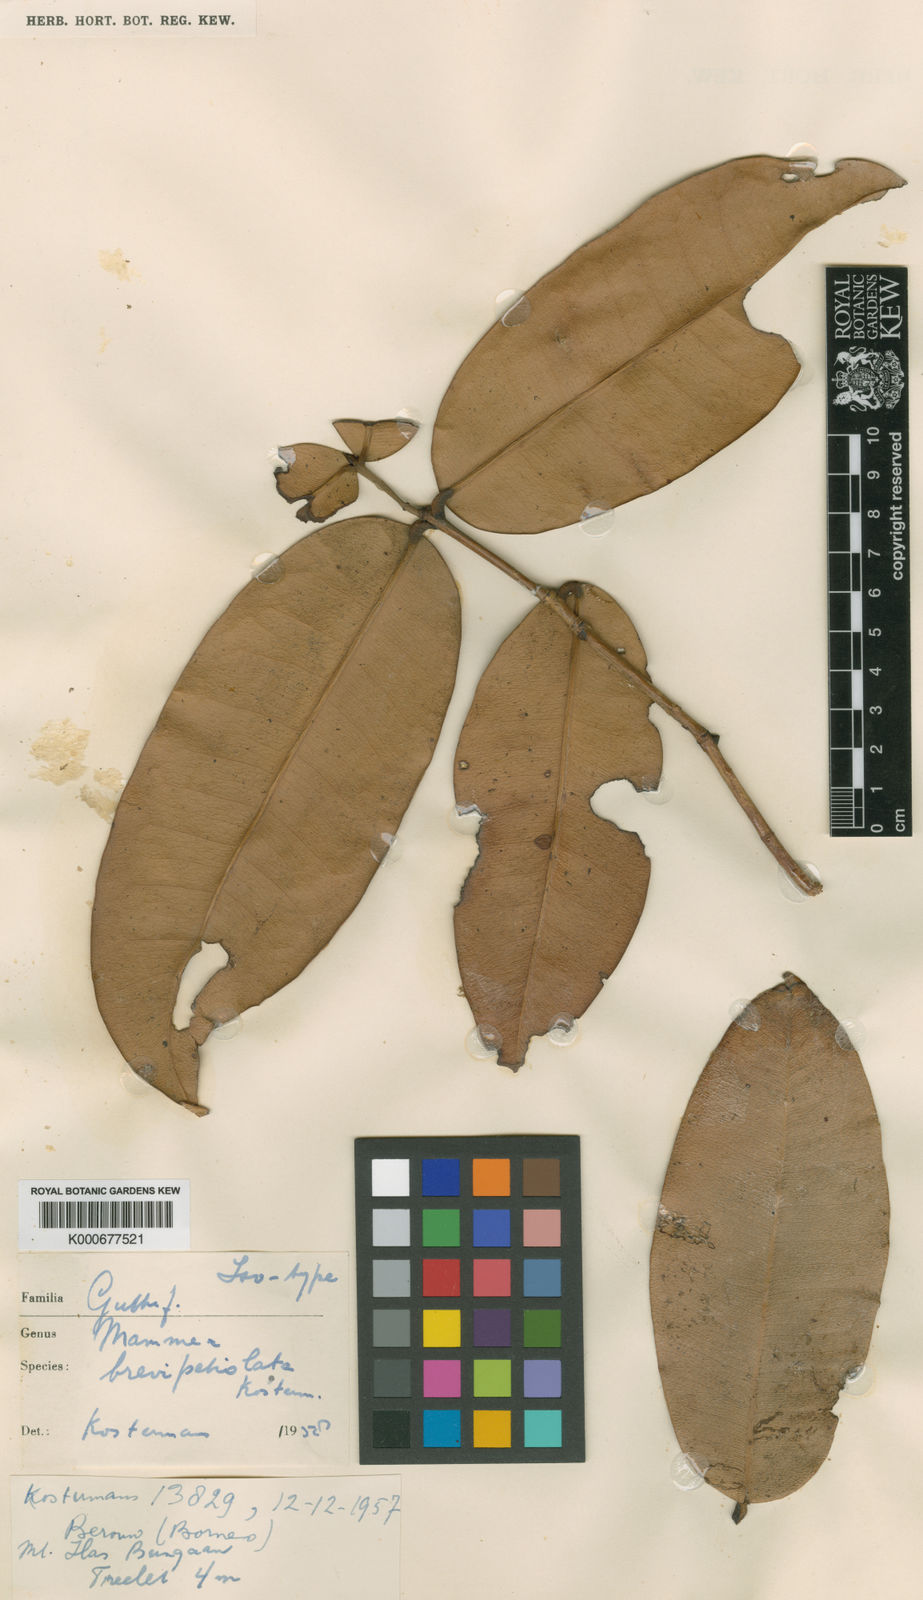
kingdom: Plantae
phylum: Tracheophyta
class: Magnoliopsida
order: Malpighiales
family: Calophyllaceae
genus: Mammea
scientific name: Mammea brevipetiolata
